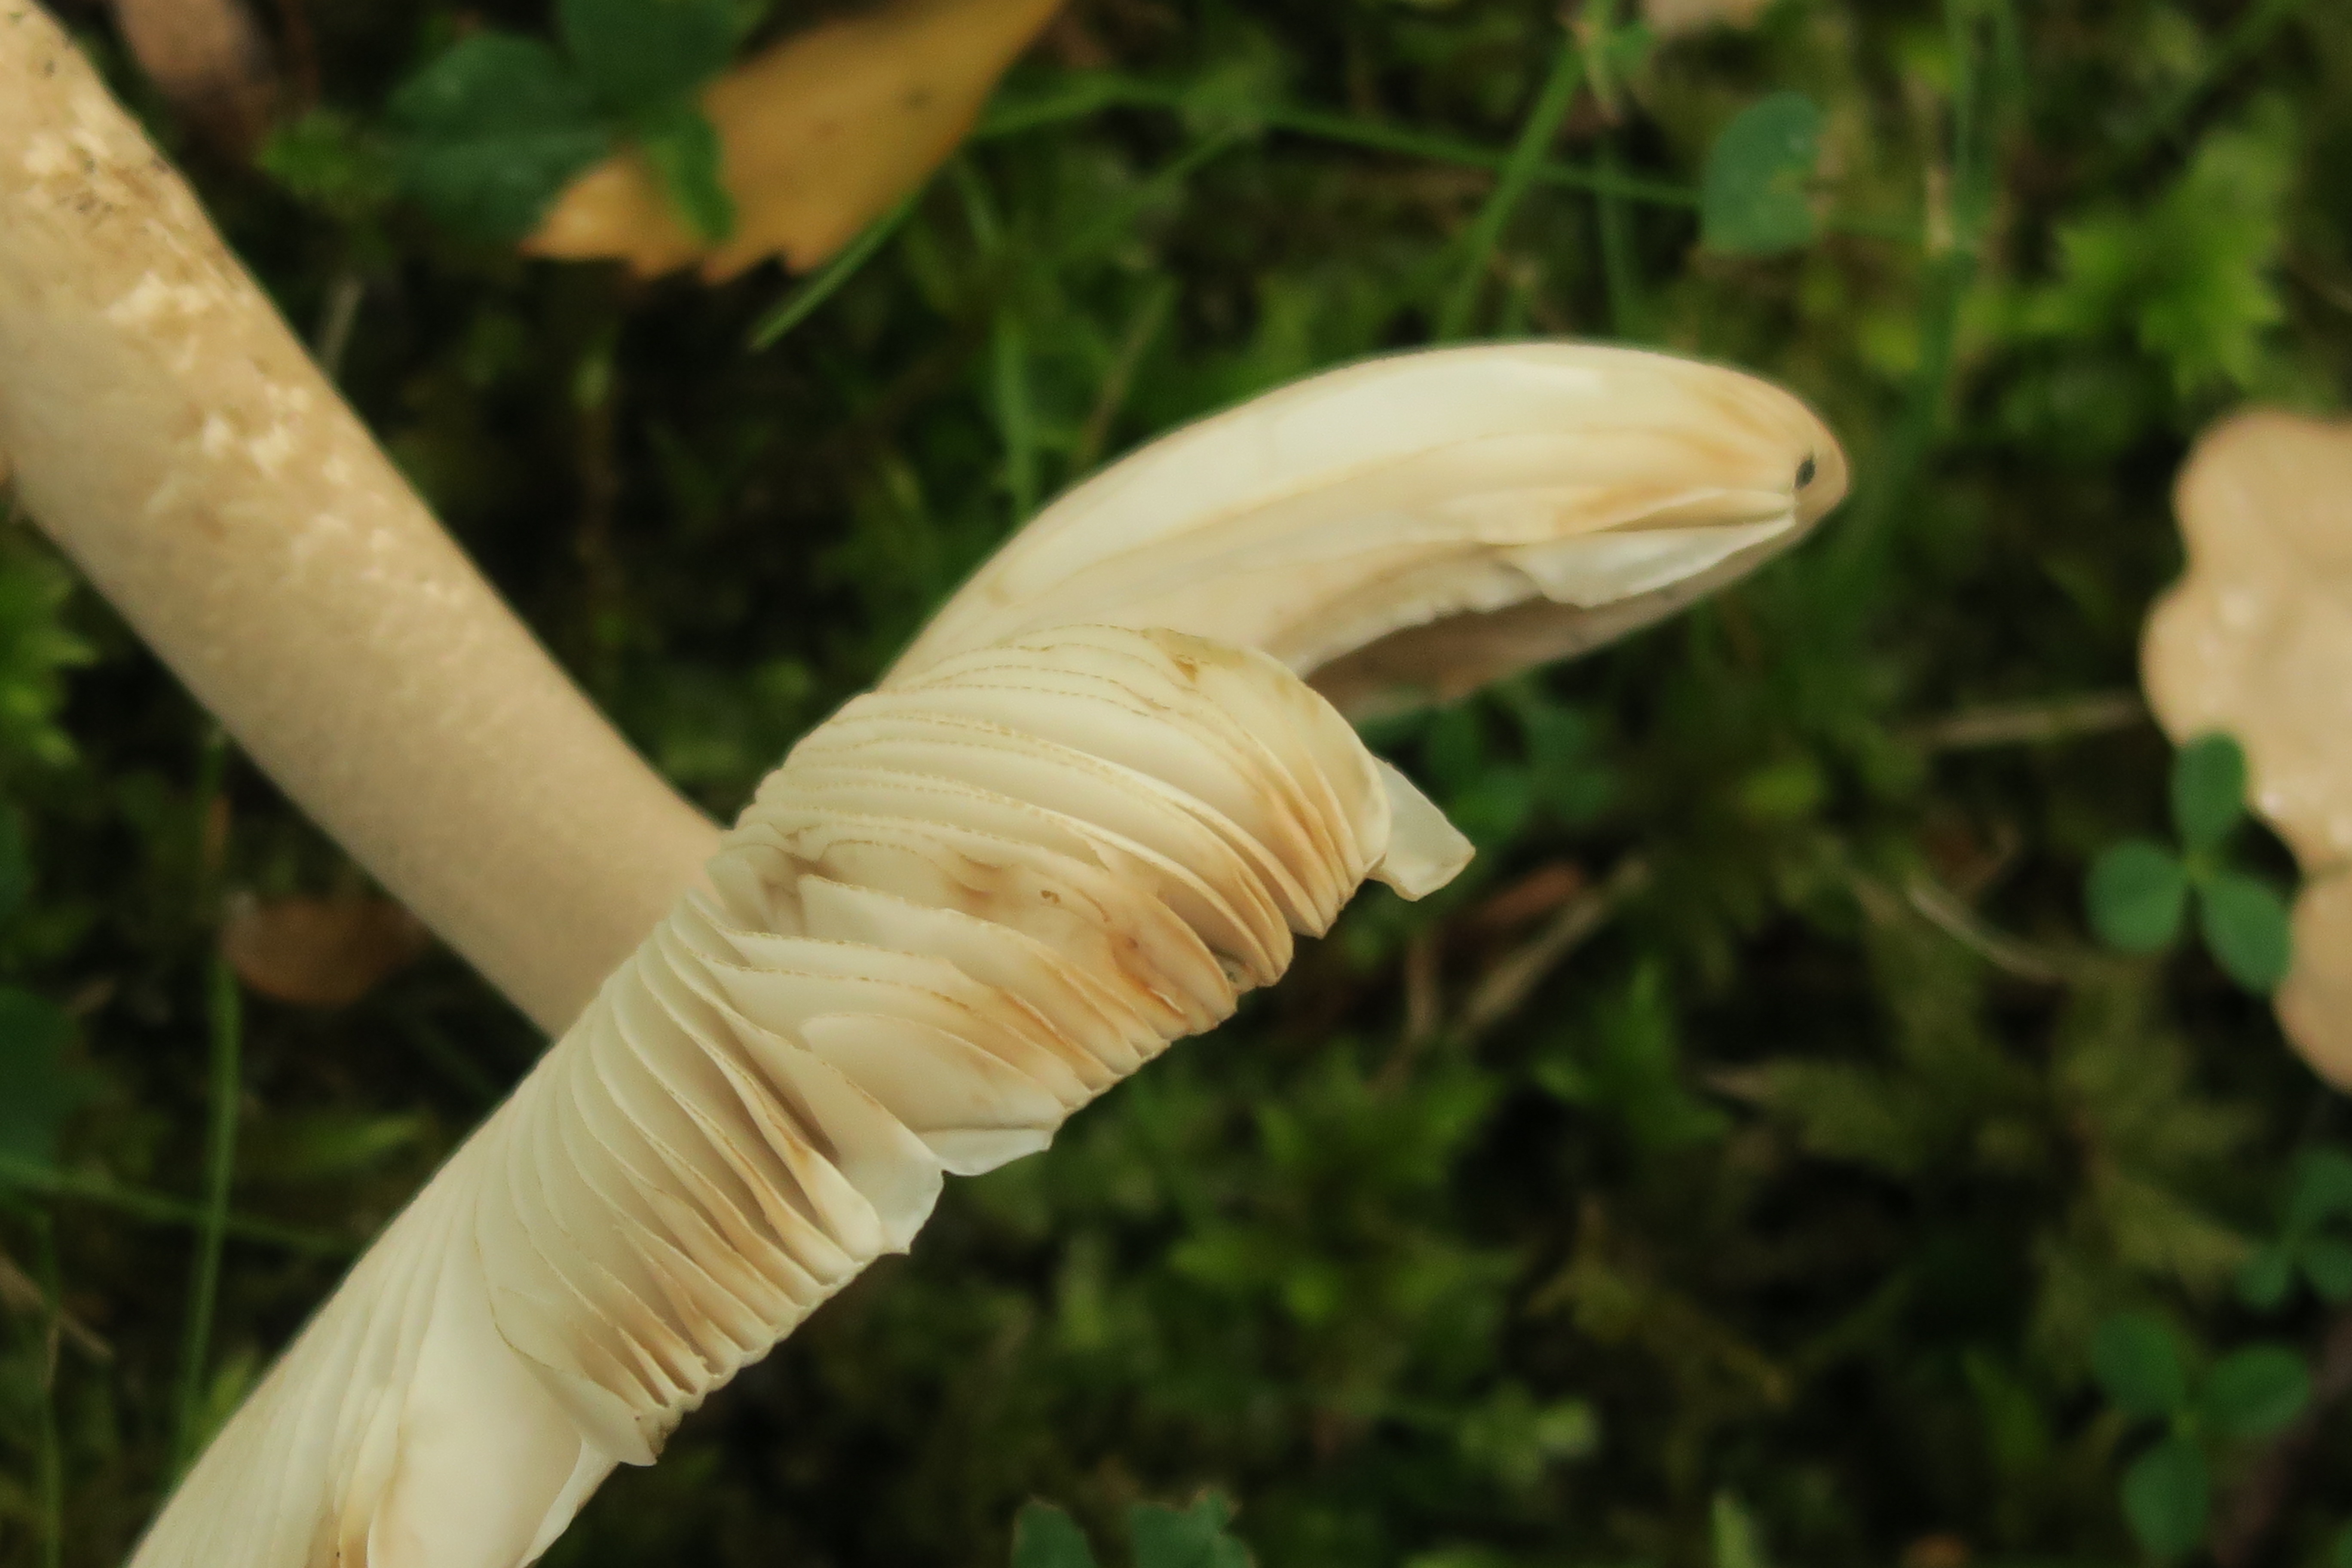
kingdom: Fungi
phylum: Basidiomycota
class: Agaricomycetes
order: Agaricales
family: Amanitaceae
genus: Amanita
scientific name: Amanita battarrae
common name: Banded amanita
